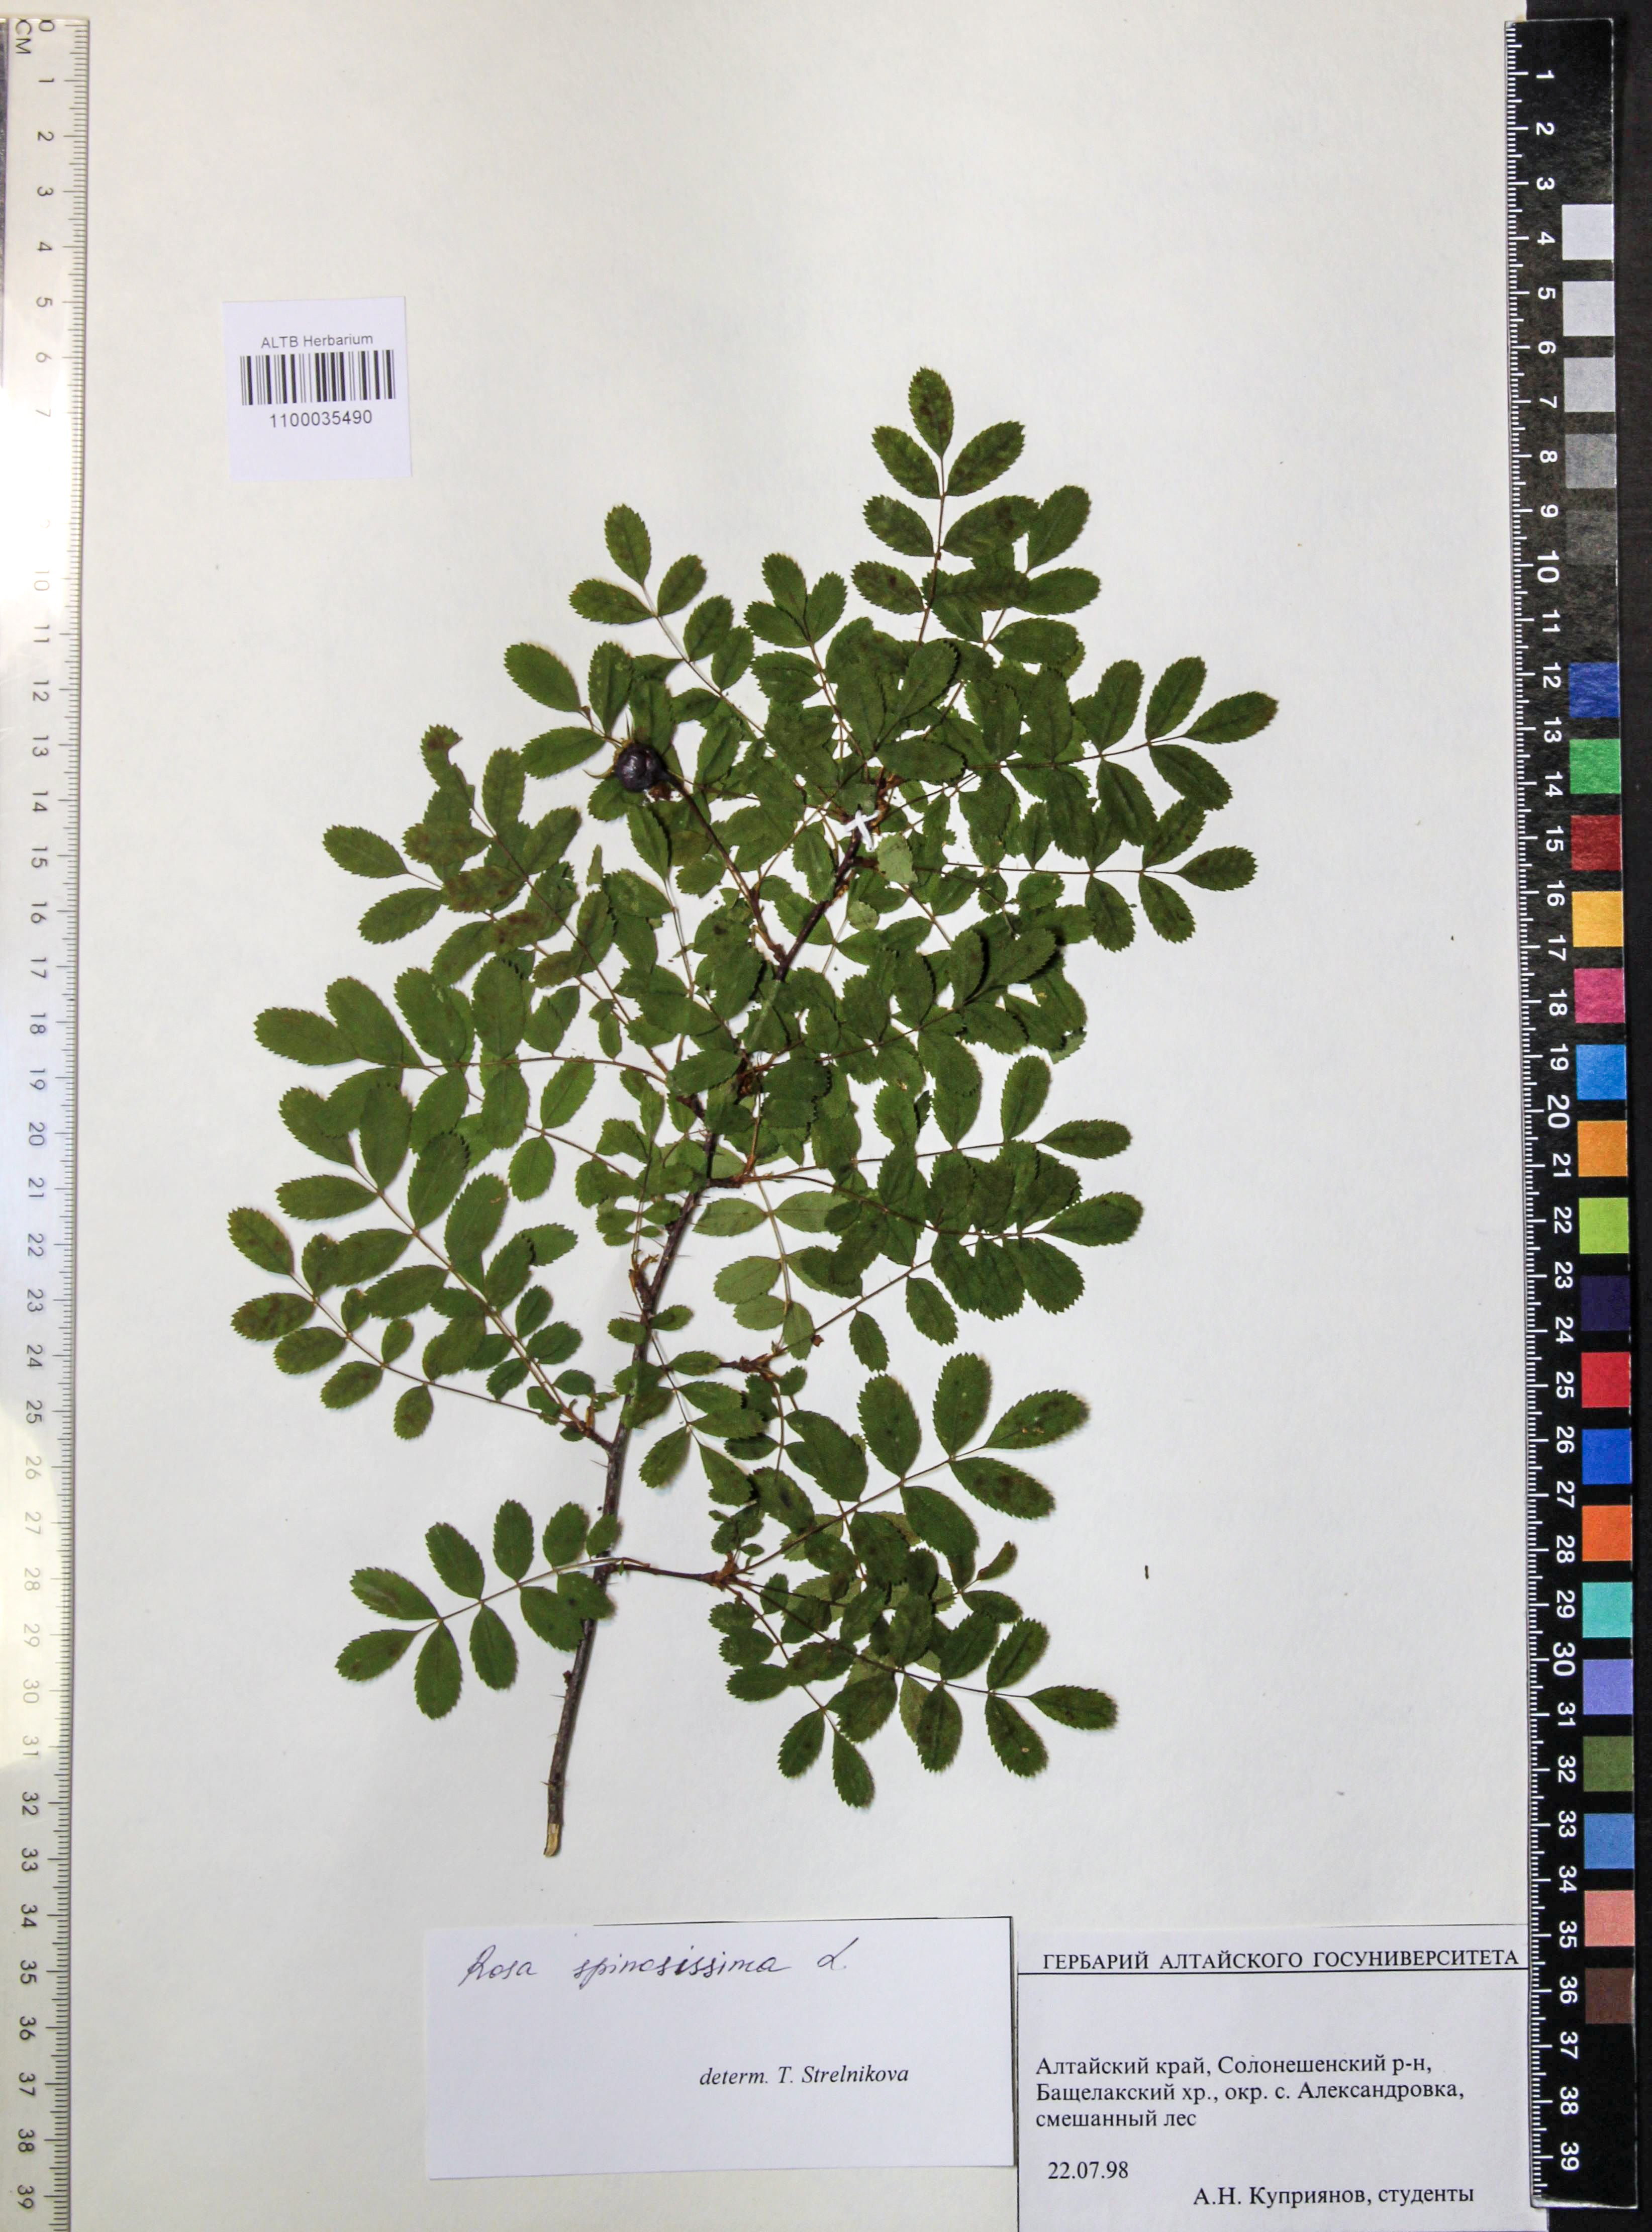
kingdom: Plantae
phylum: Tracheophyta
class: Magnoliopsida
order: Rosales
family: Rosaceae
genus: Rosa
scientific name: Rosa spinosissima
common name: Burnet rose
